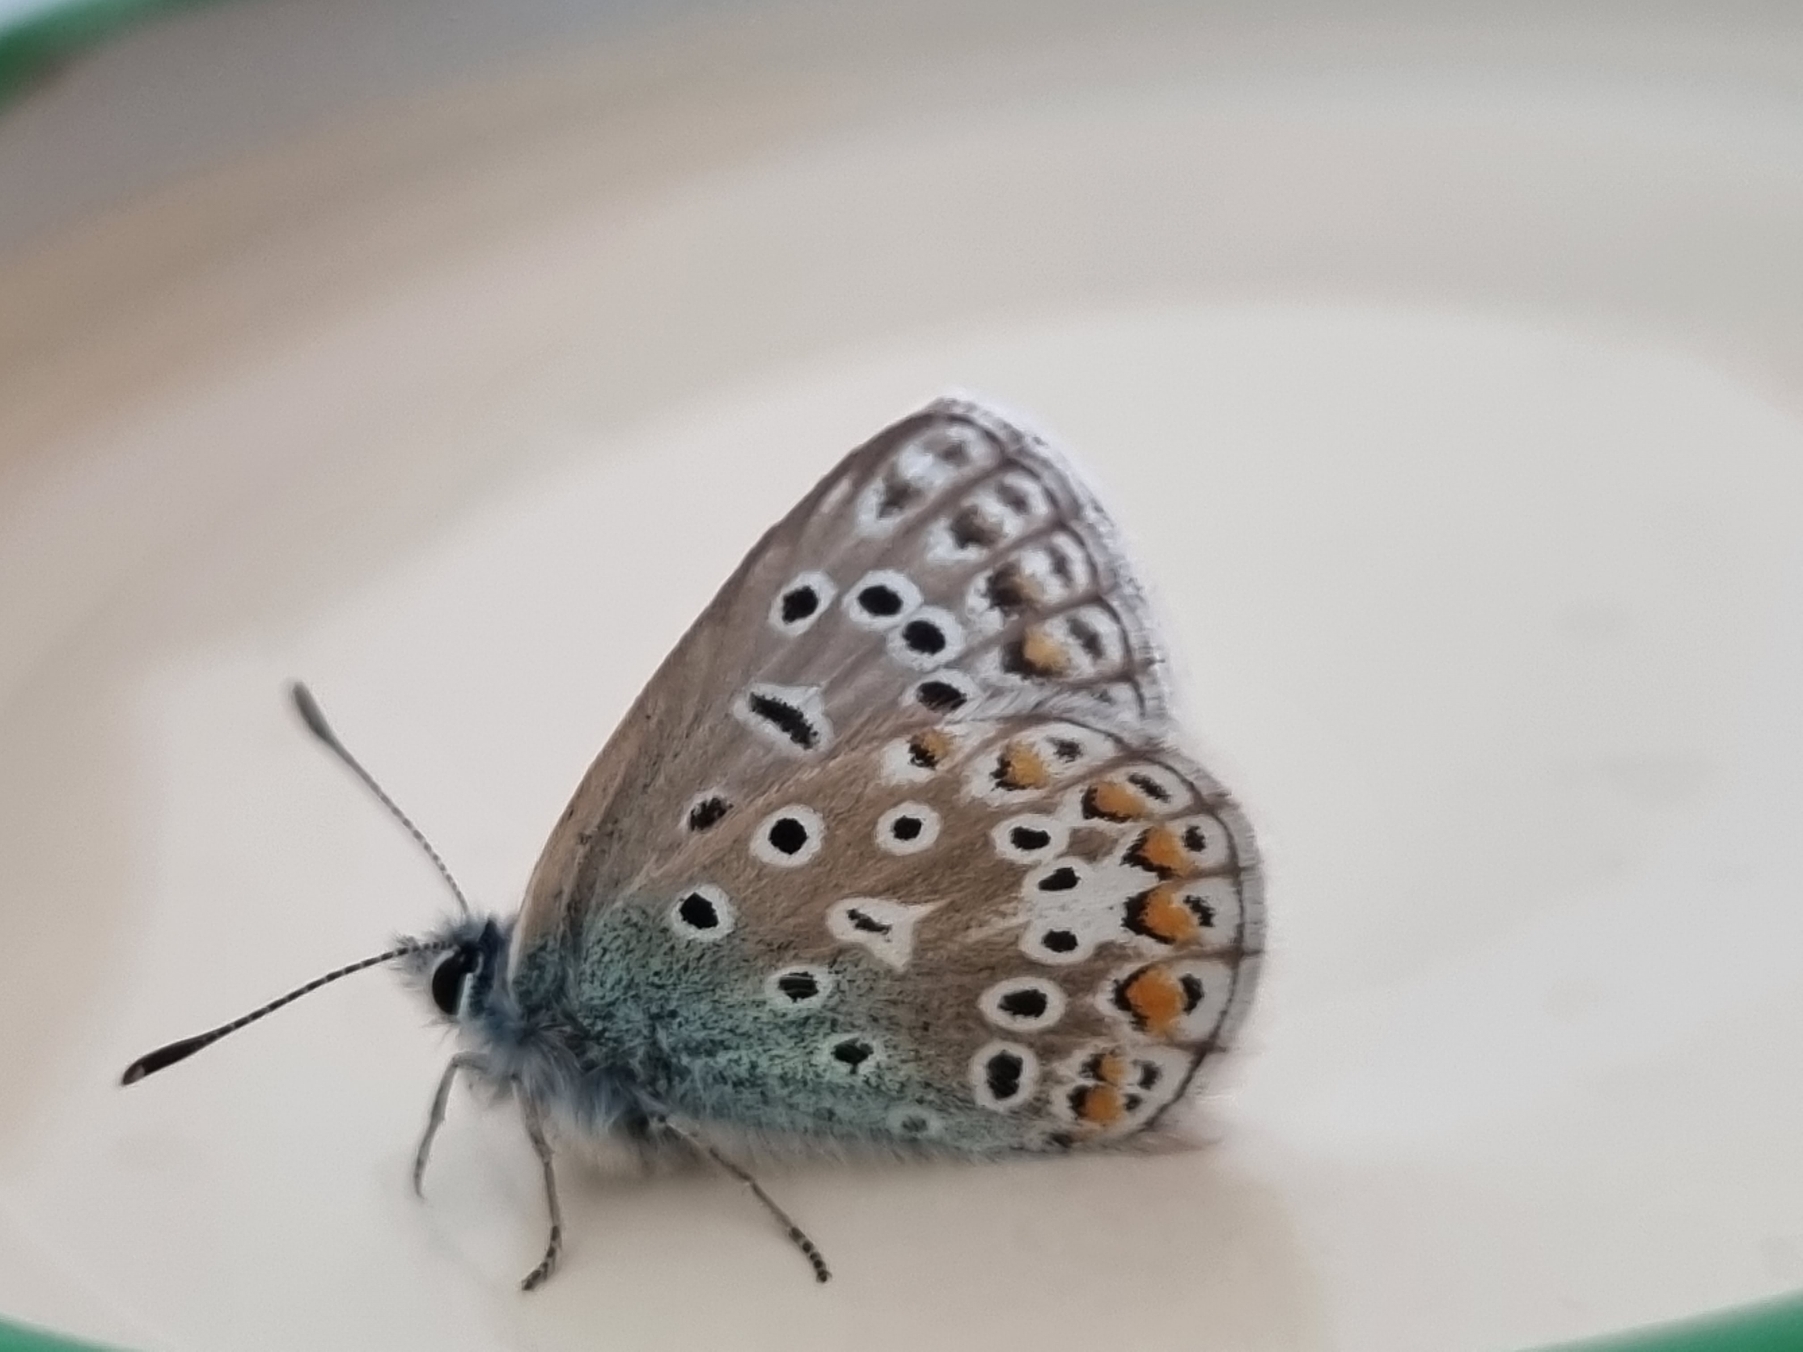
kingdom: Animalia
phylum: Arthropoda
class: Insecta
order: Lepidoptera
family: Lycaenidae
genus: Polyommatus
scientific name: Polyommatus icarus
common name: Almindelig blåfugl
